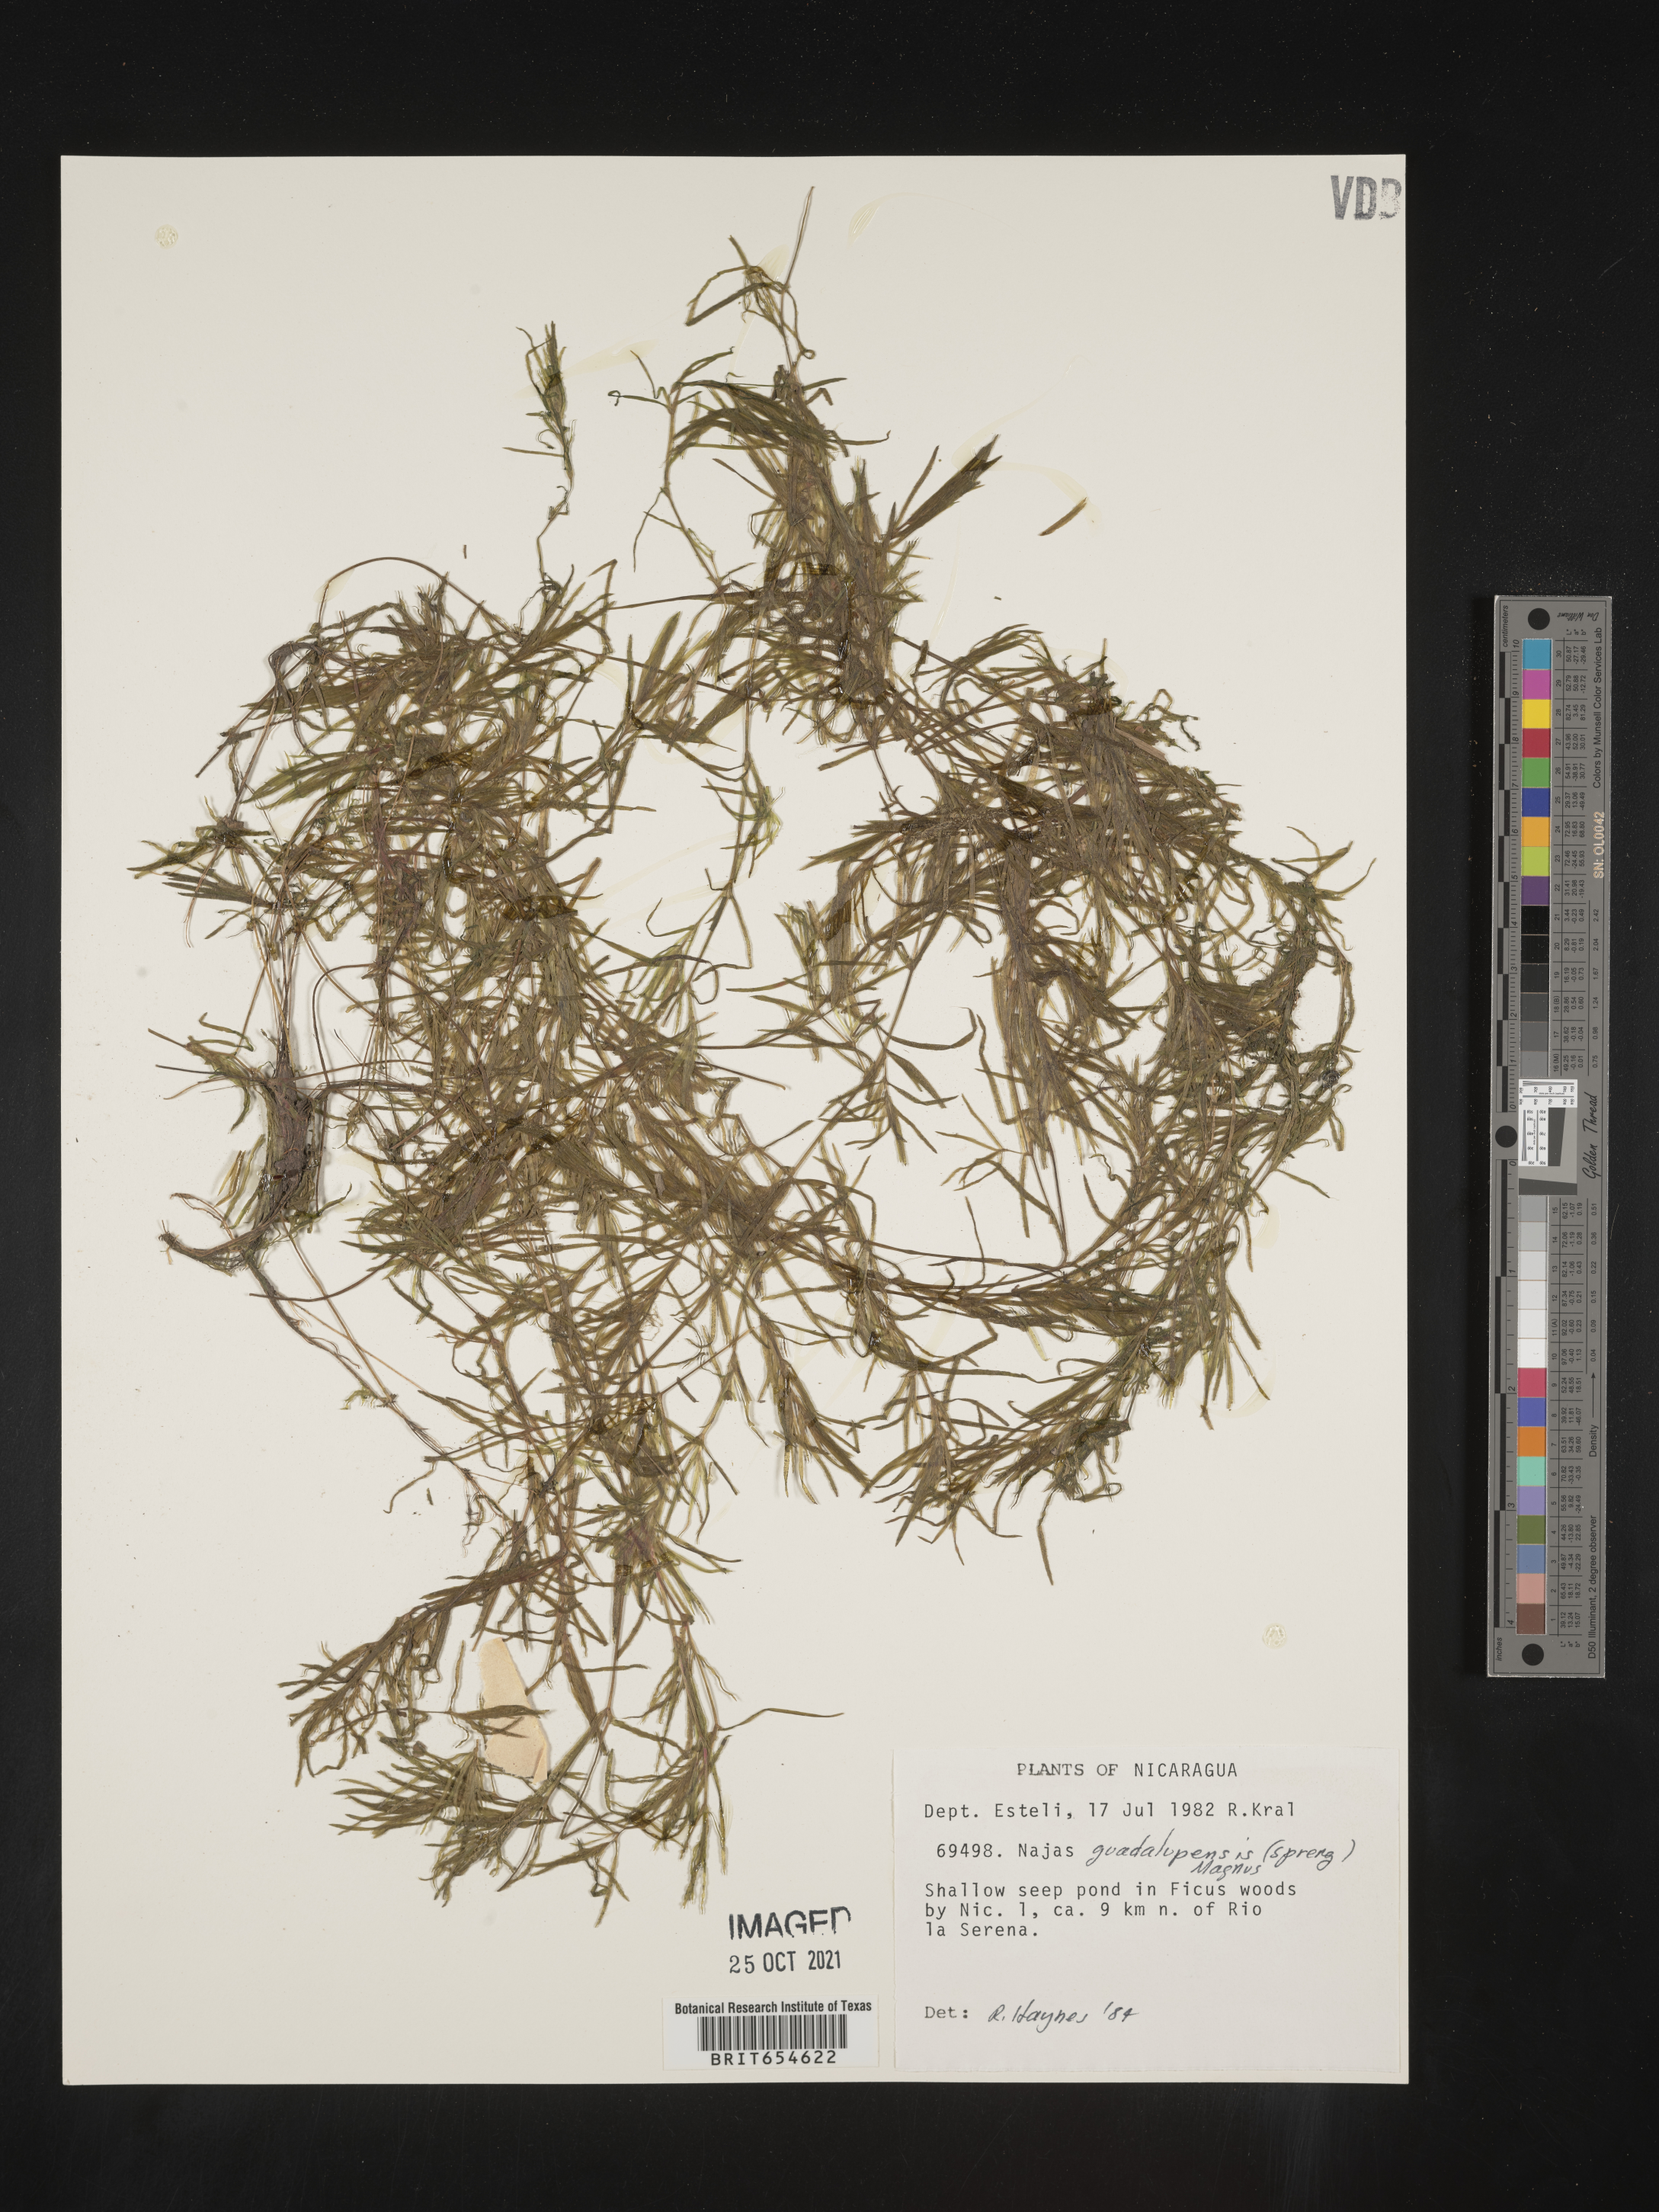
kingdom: Plantae
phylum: Tracheophyta
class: Liliopsida
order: Alismatales
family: Hydrocharitaceae
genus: Najas
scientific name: Najas
